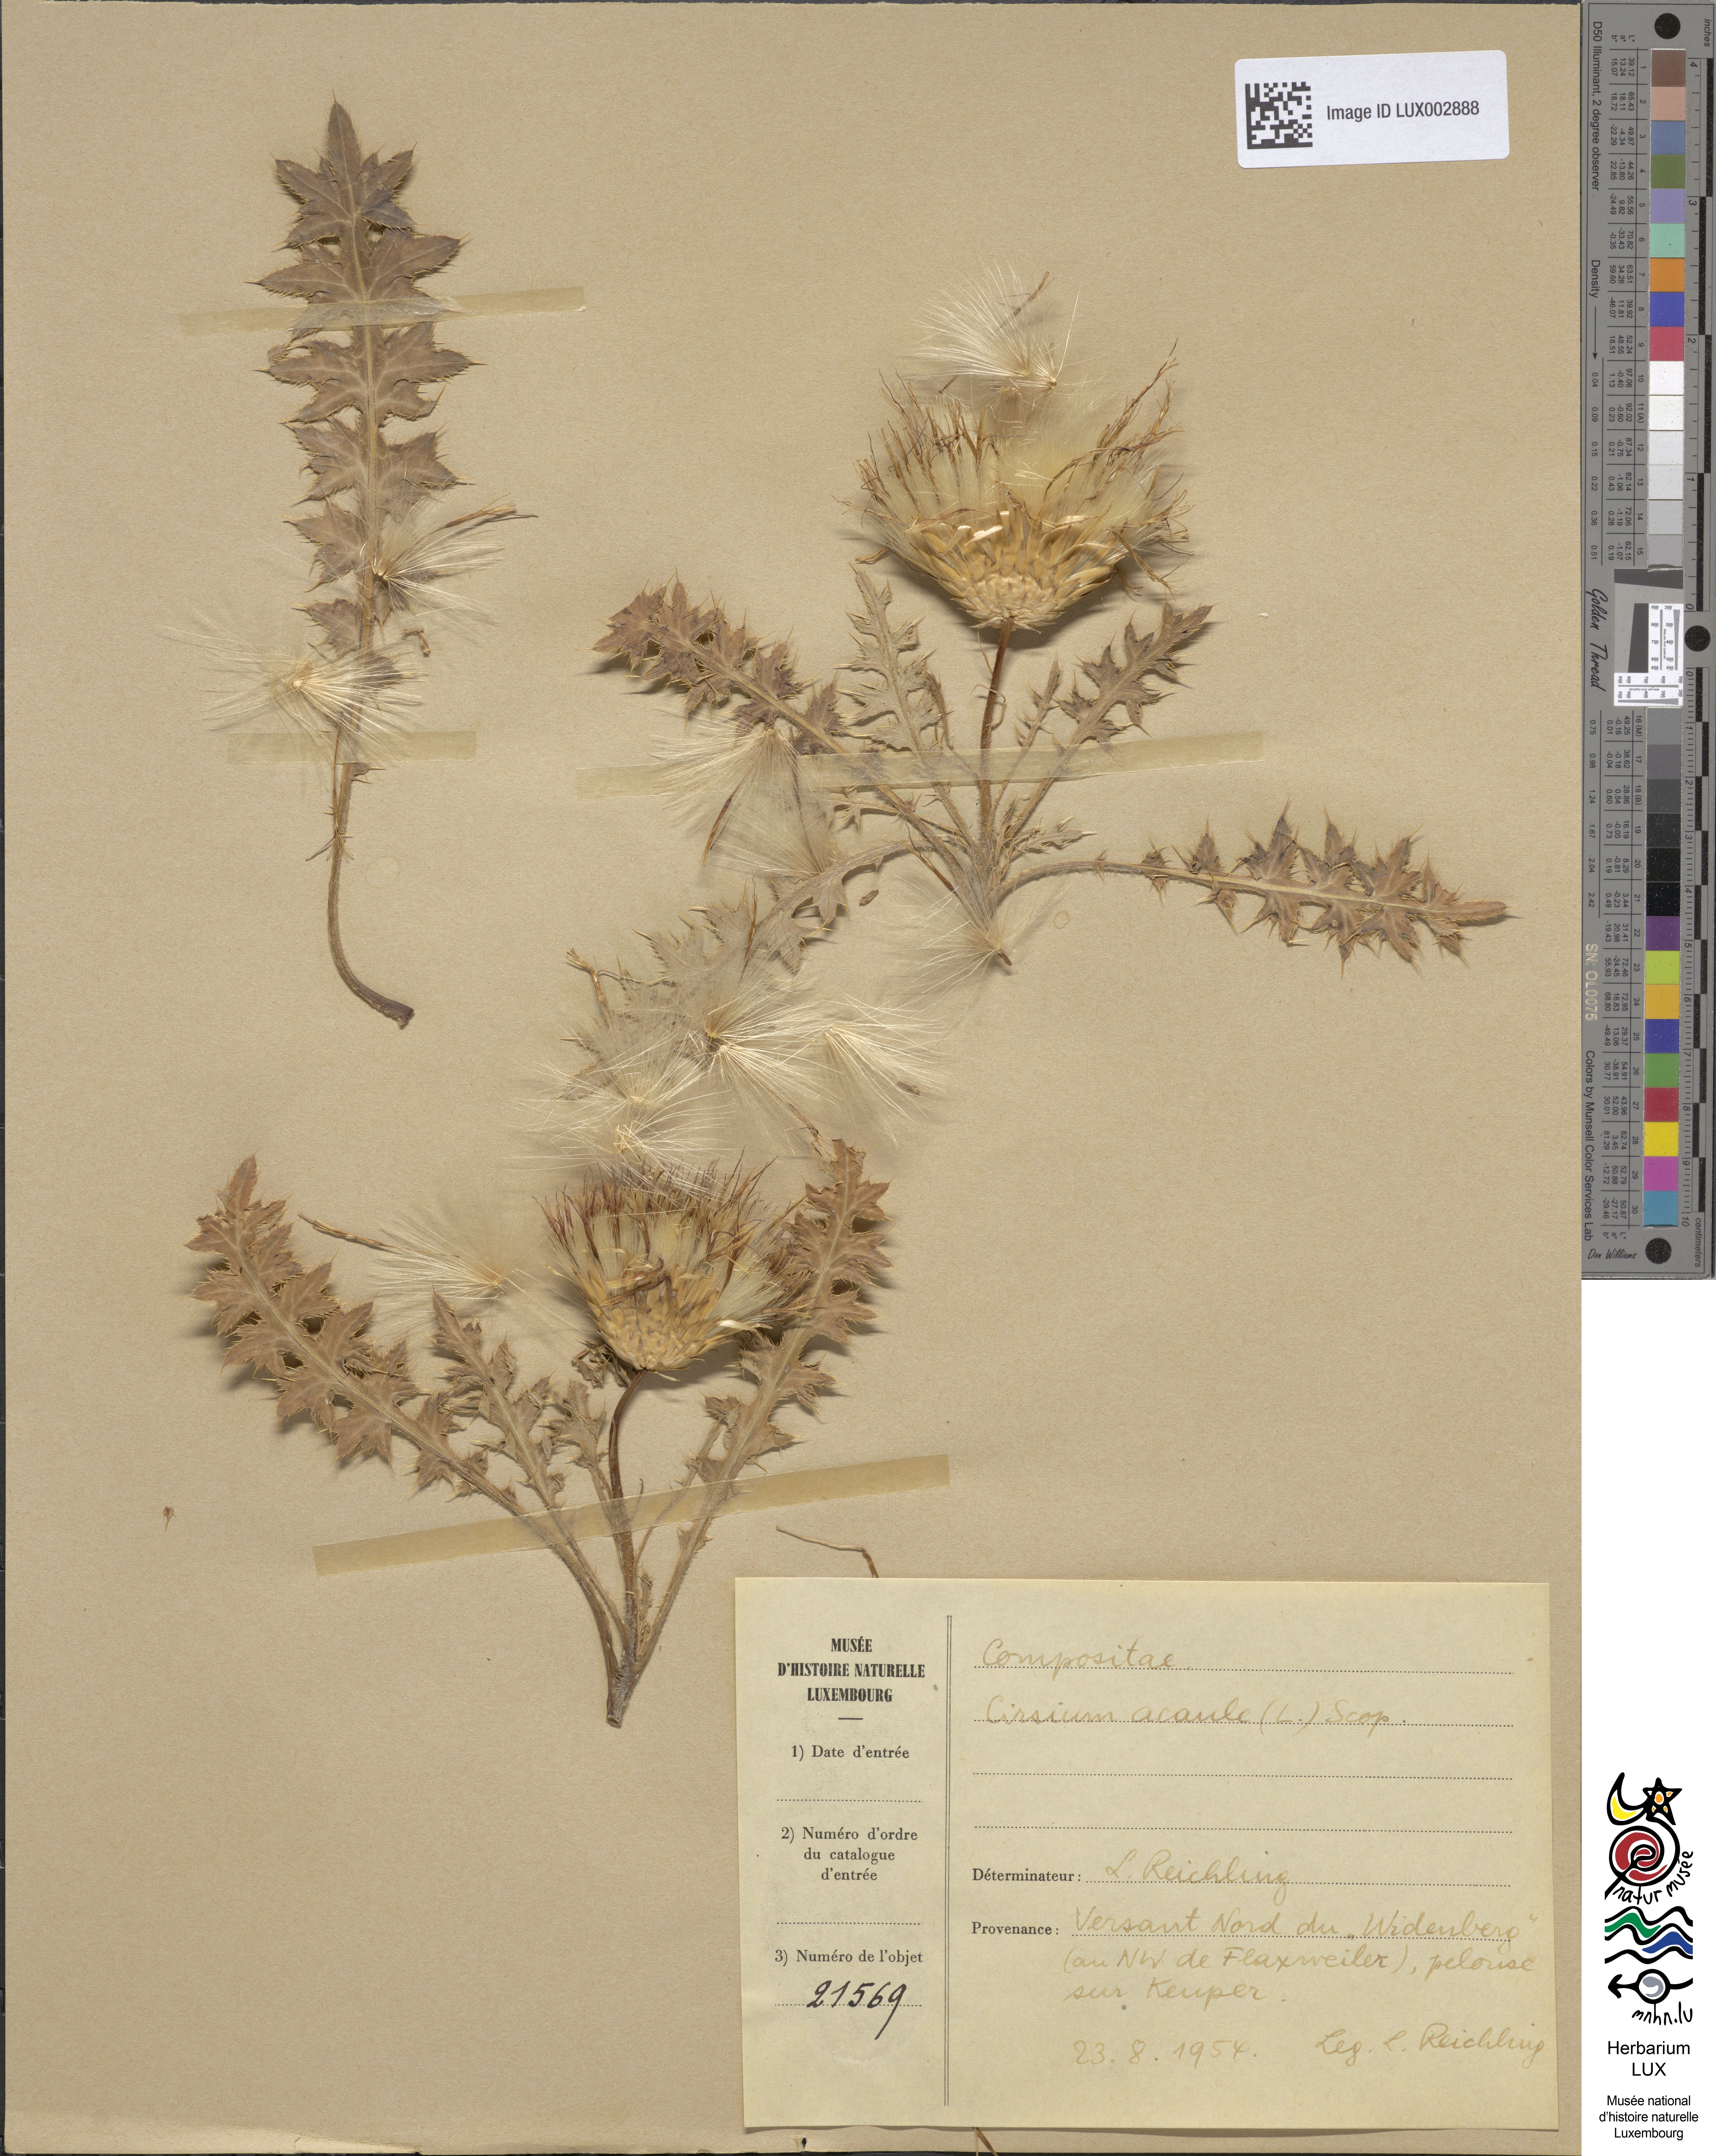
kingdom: Plantae
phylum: Tracheophyta
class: Magnoliopsida
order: Asterales
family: Asteraceae
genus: Cirsium
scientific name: Cirsium acaule
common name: Dwarf thistle
